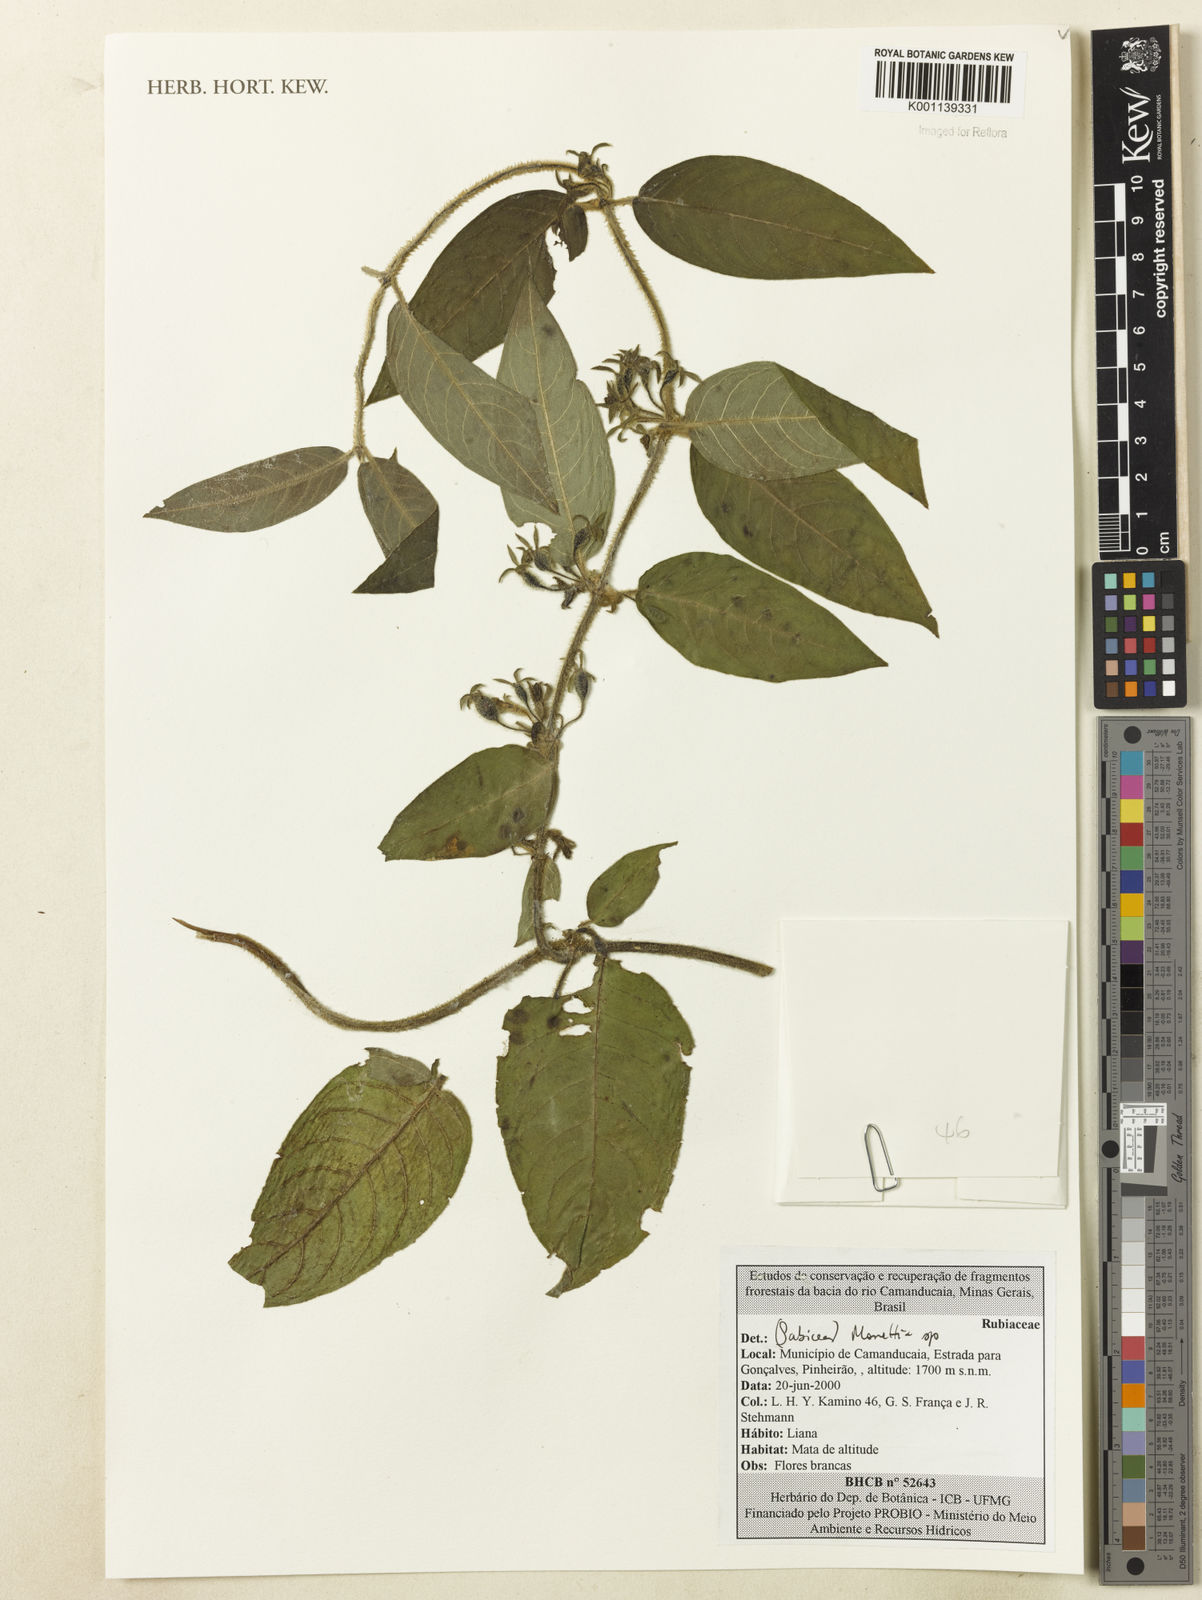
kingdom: Plantae
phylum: Tracheophyta
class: Magnoliopsida
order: Gentianales
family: Rubiaceae
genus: Manettia
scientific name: Manettia
